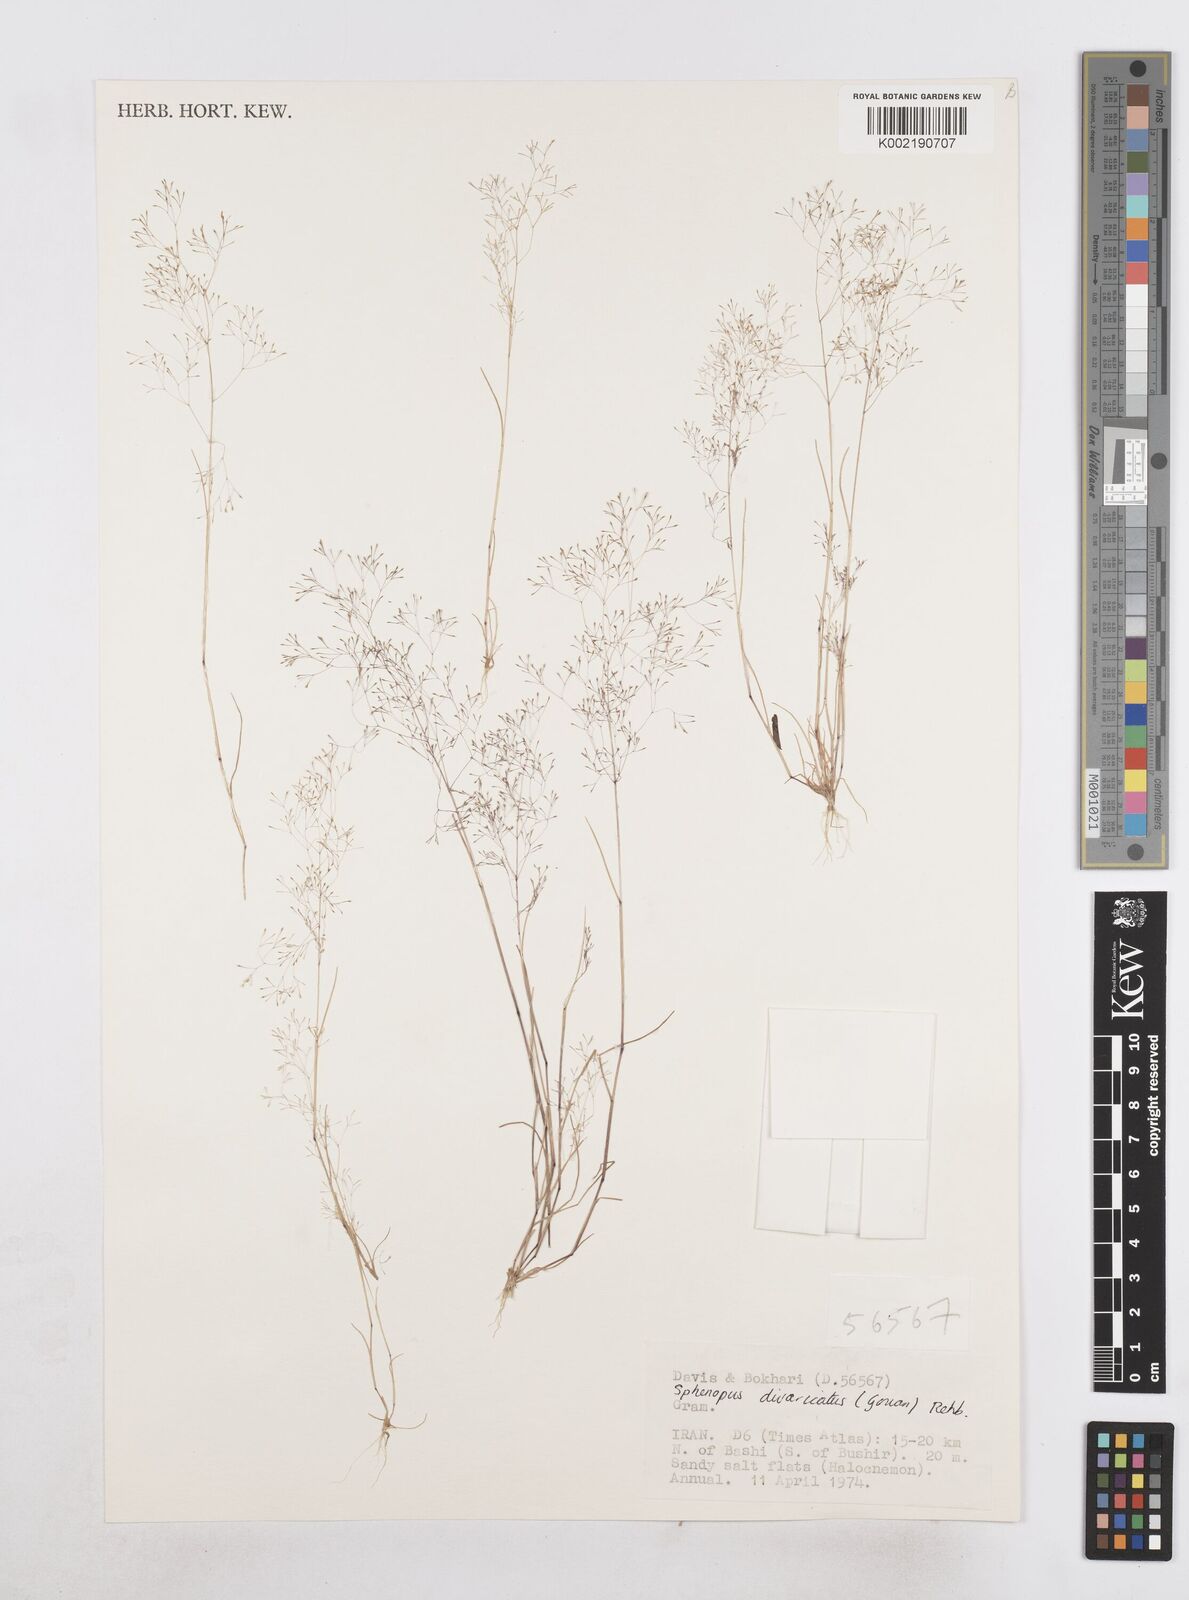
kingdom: Plantae
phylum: Tracheophyta
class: Liliopsida
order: Poales
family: Poaceae
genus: Sphenopus
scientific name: Sphenopus divaricatus
